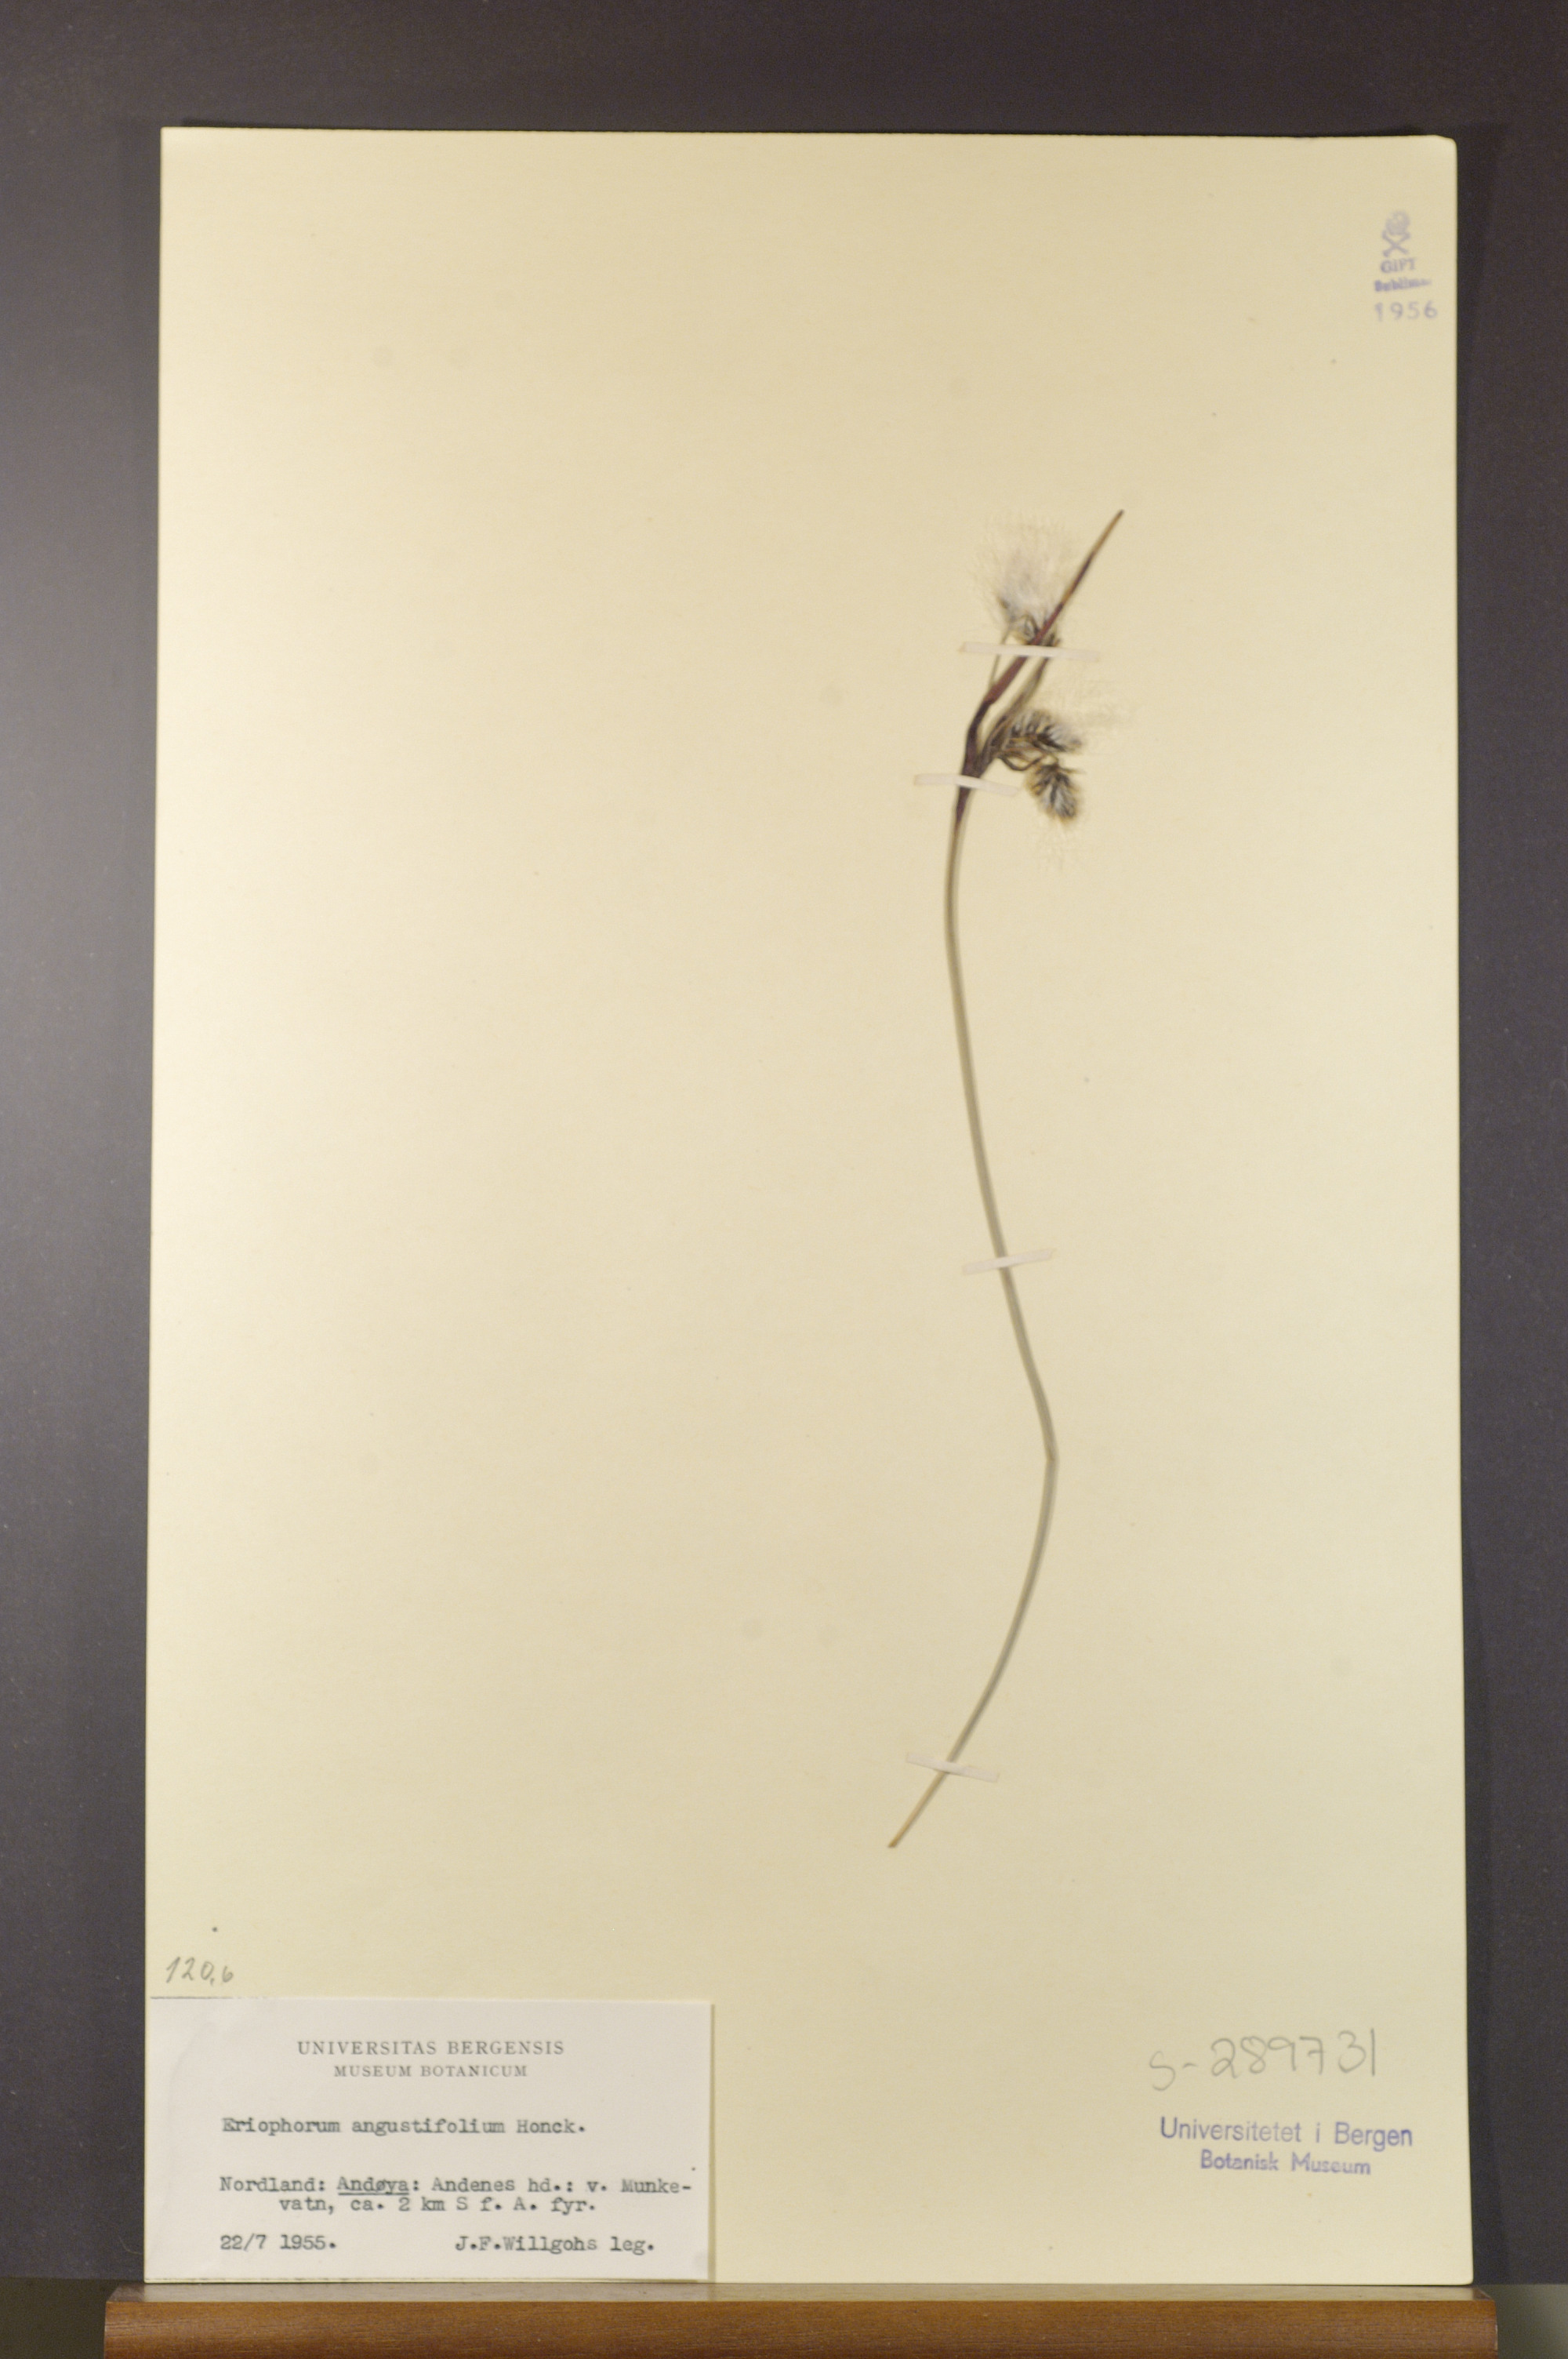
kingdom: Plantae
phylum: Tracheophyta
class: Liliopsida
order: Poales
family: Cyperaceae
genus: Eriophorum
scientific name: Eriophorum angustifolium
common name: Common cottongrass
